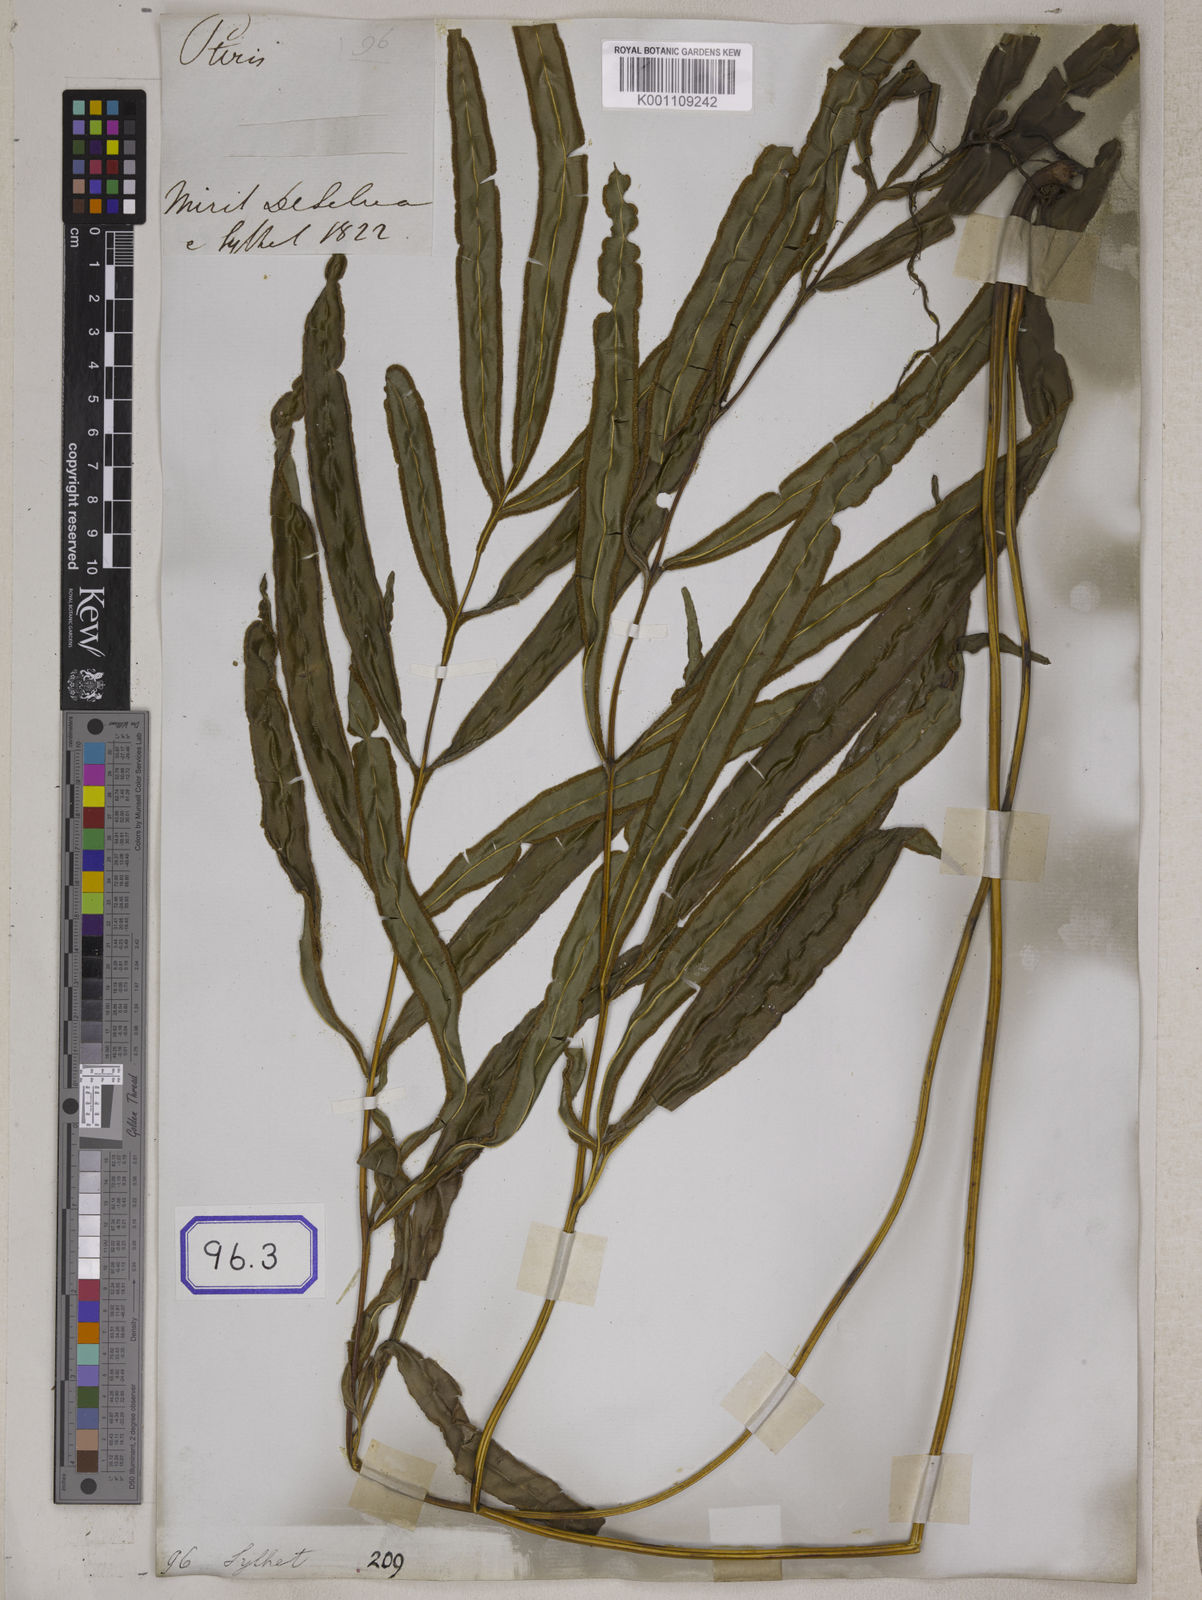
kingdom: Plantae
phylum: Tracheophyta
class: Polypodiopsida
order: Polypodiales
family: Pteridaceae
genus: Pteris
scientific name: Pteris cretica
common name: Ribbon fern
